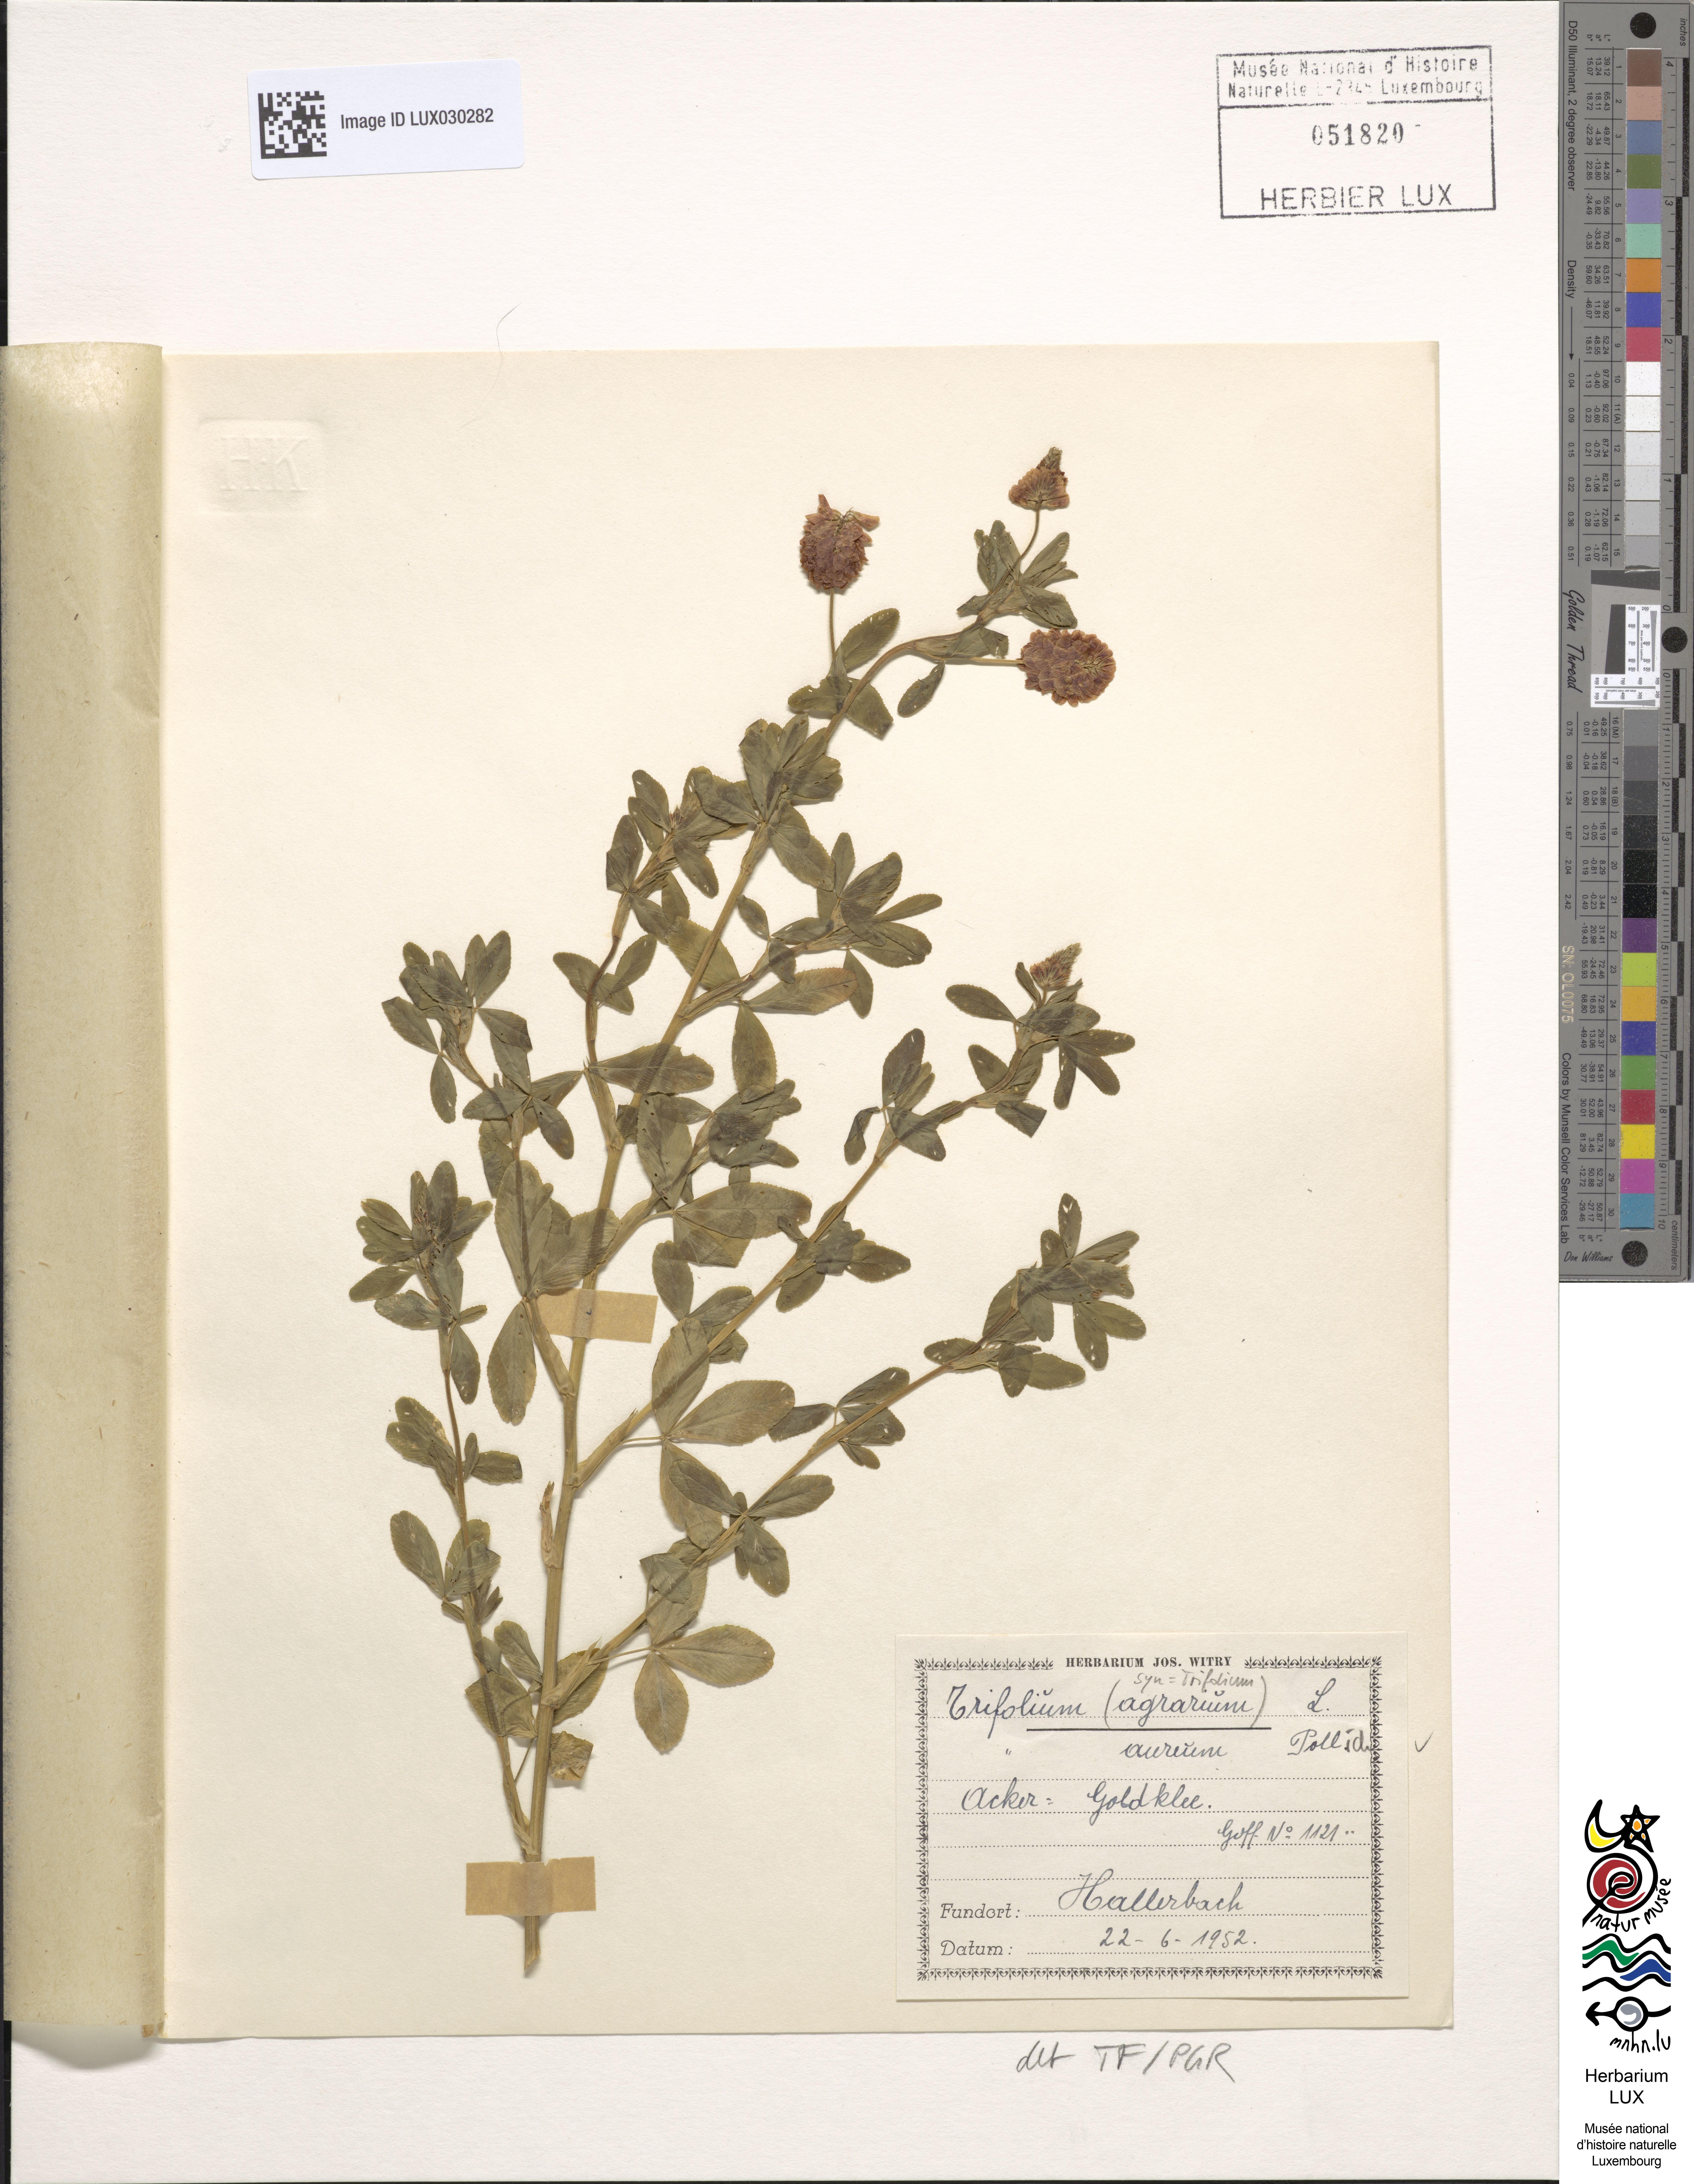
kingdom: Plantae
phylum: Tracheophyta
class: Magnoliopsida
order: Fabales
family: Fabaceae
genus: Trifolium
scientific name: Trifolium aureum
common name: Golden clover
